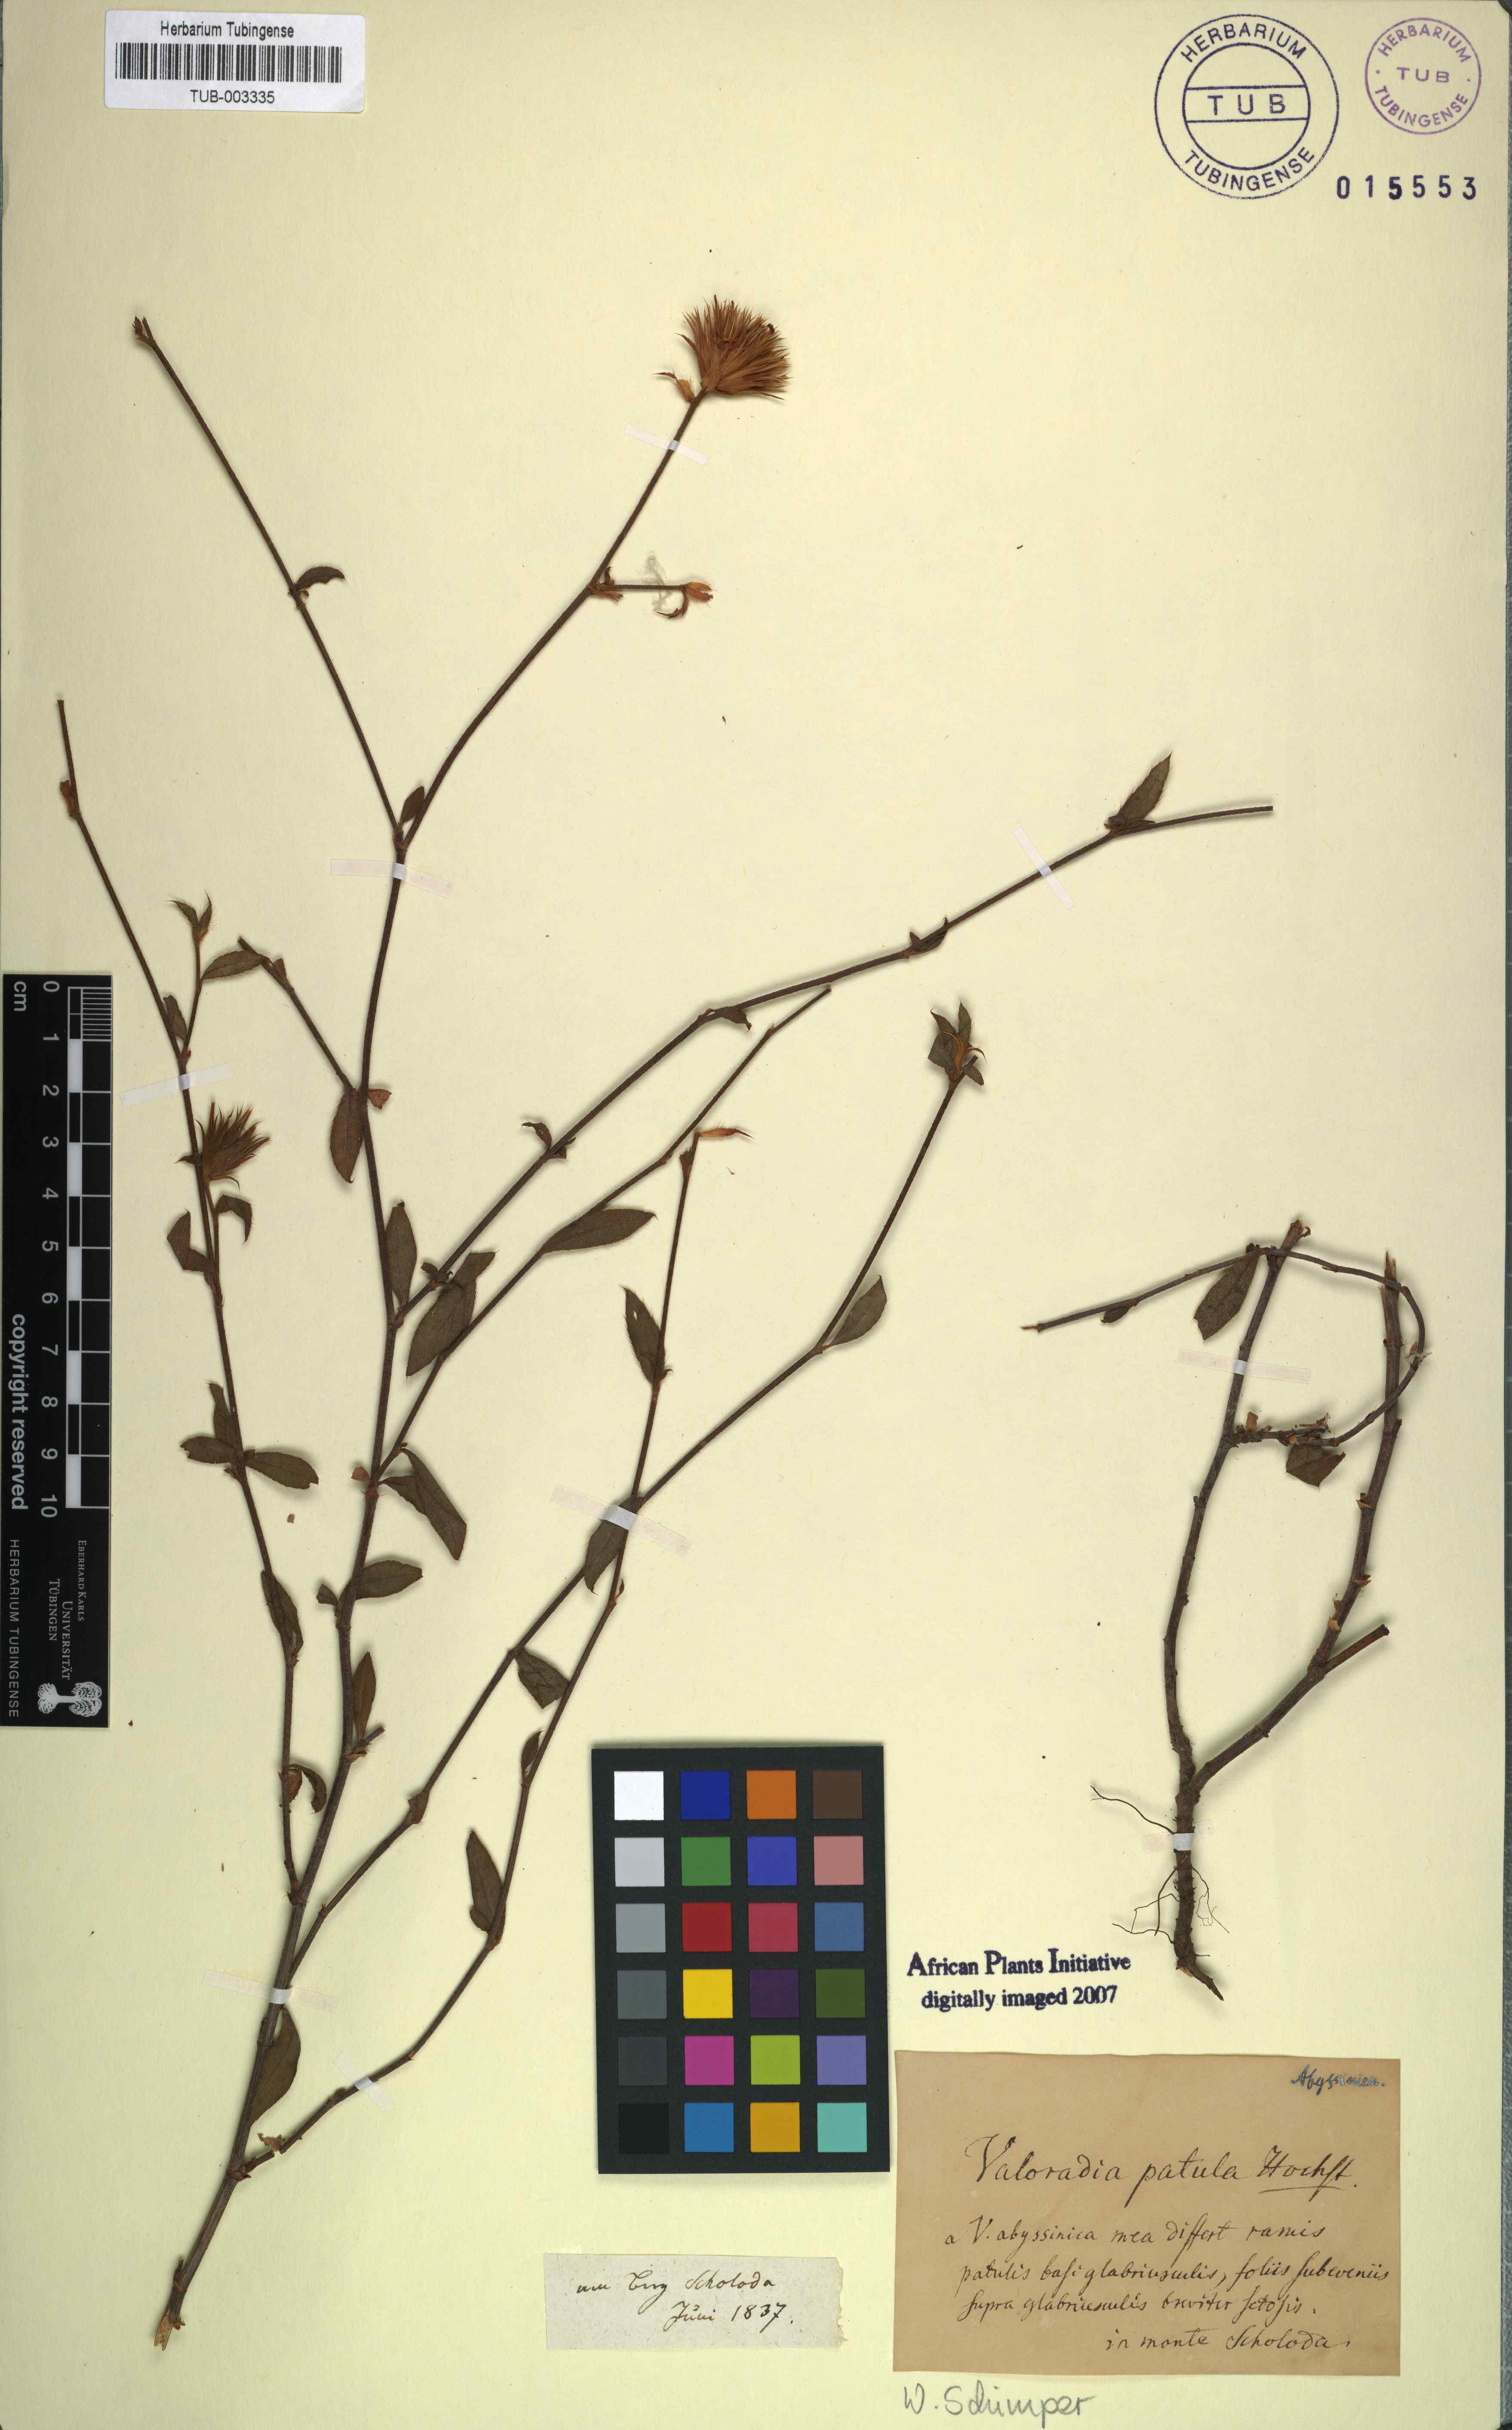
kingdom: Plantae
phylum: Tracheophyta
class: Magnoliopsida
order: Caryophyllales
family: Plumbaginaceae
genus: Ceratostigma
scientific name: Ceratostigma Valoradia patula
